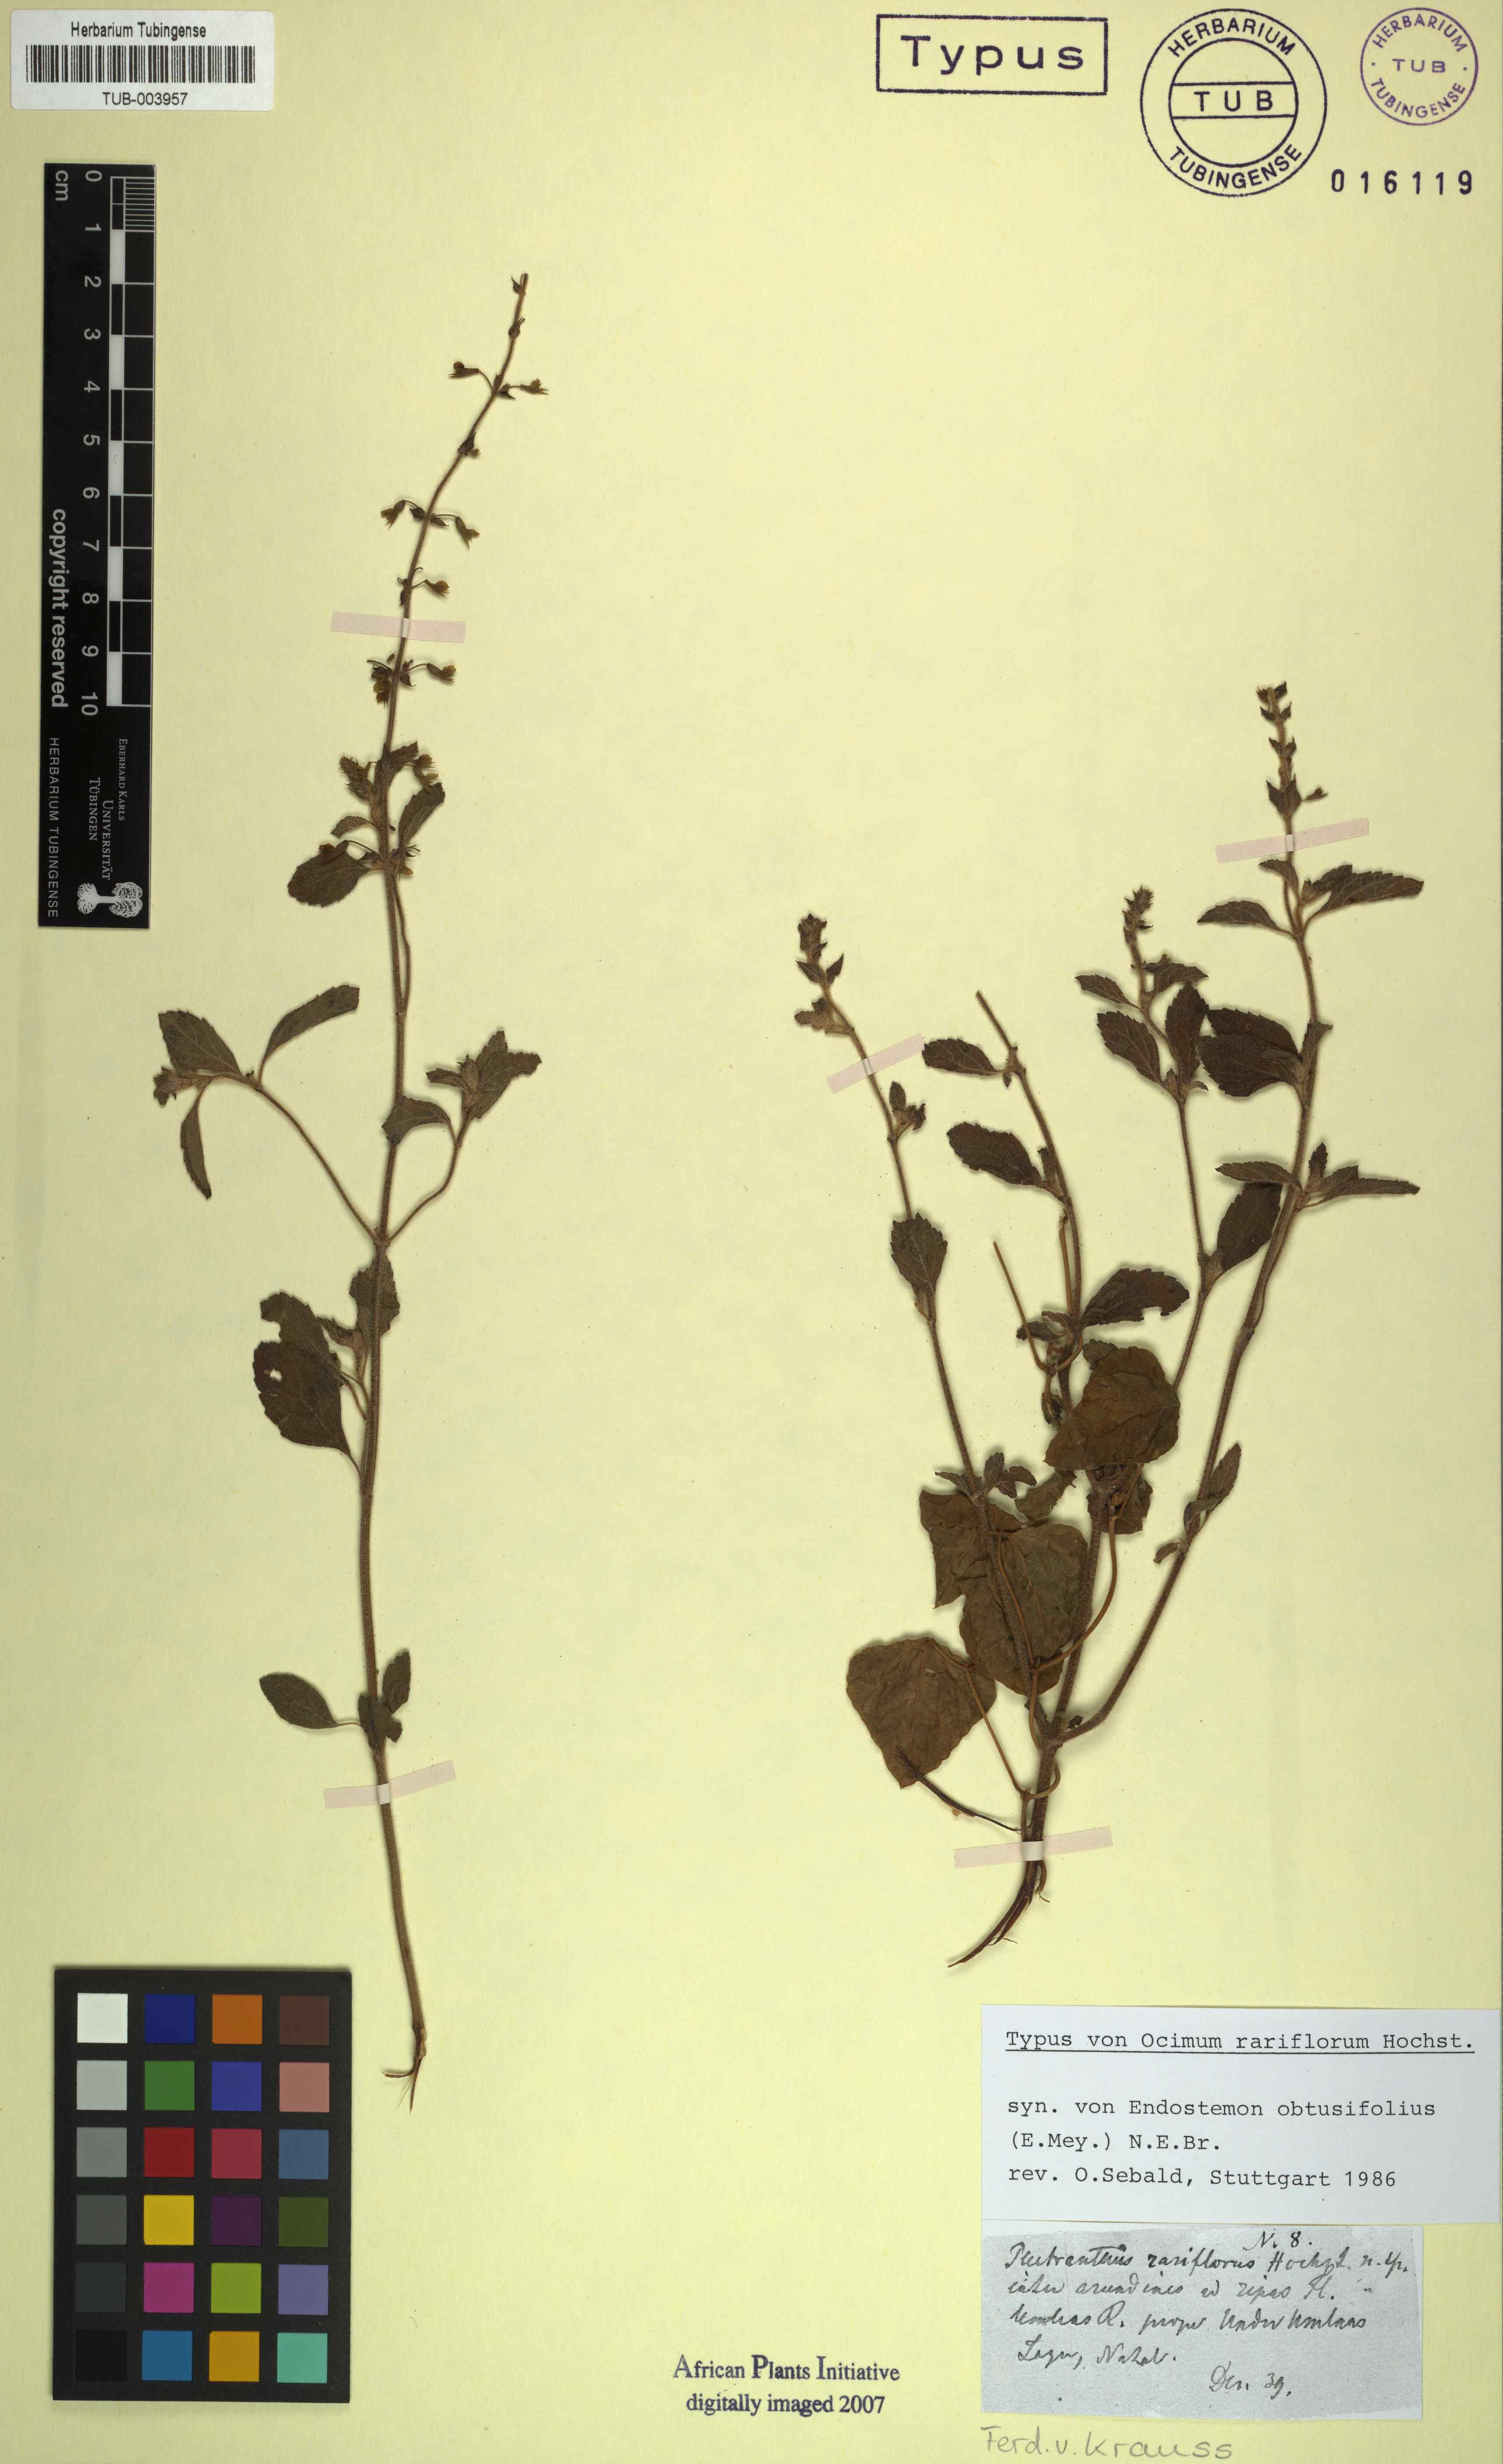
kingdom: Plantae
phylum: Tracheophyta
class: Magnoliopsida
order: Lamiales
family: Lamiaceae
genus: Endostemon
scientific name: Endostemon obtusifolius
